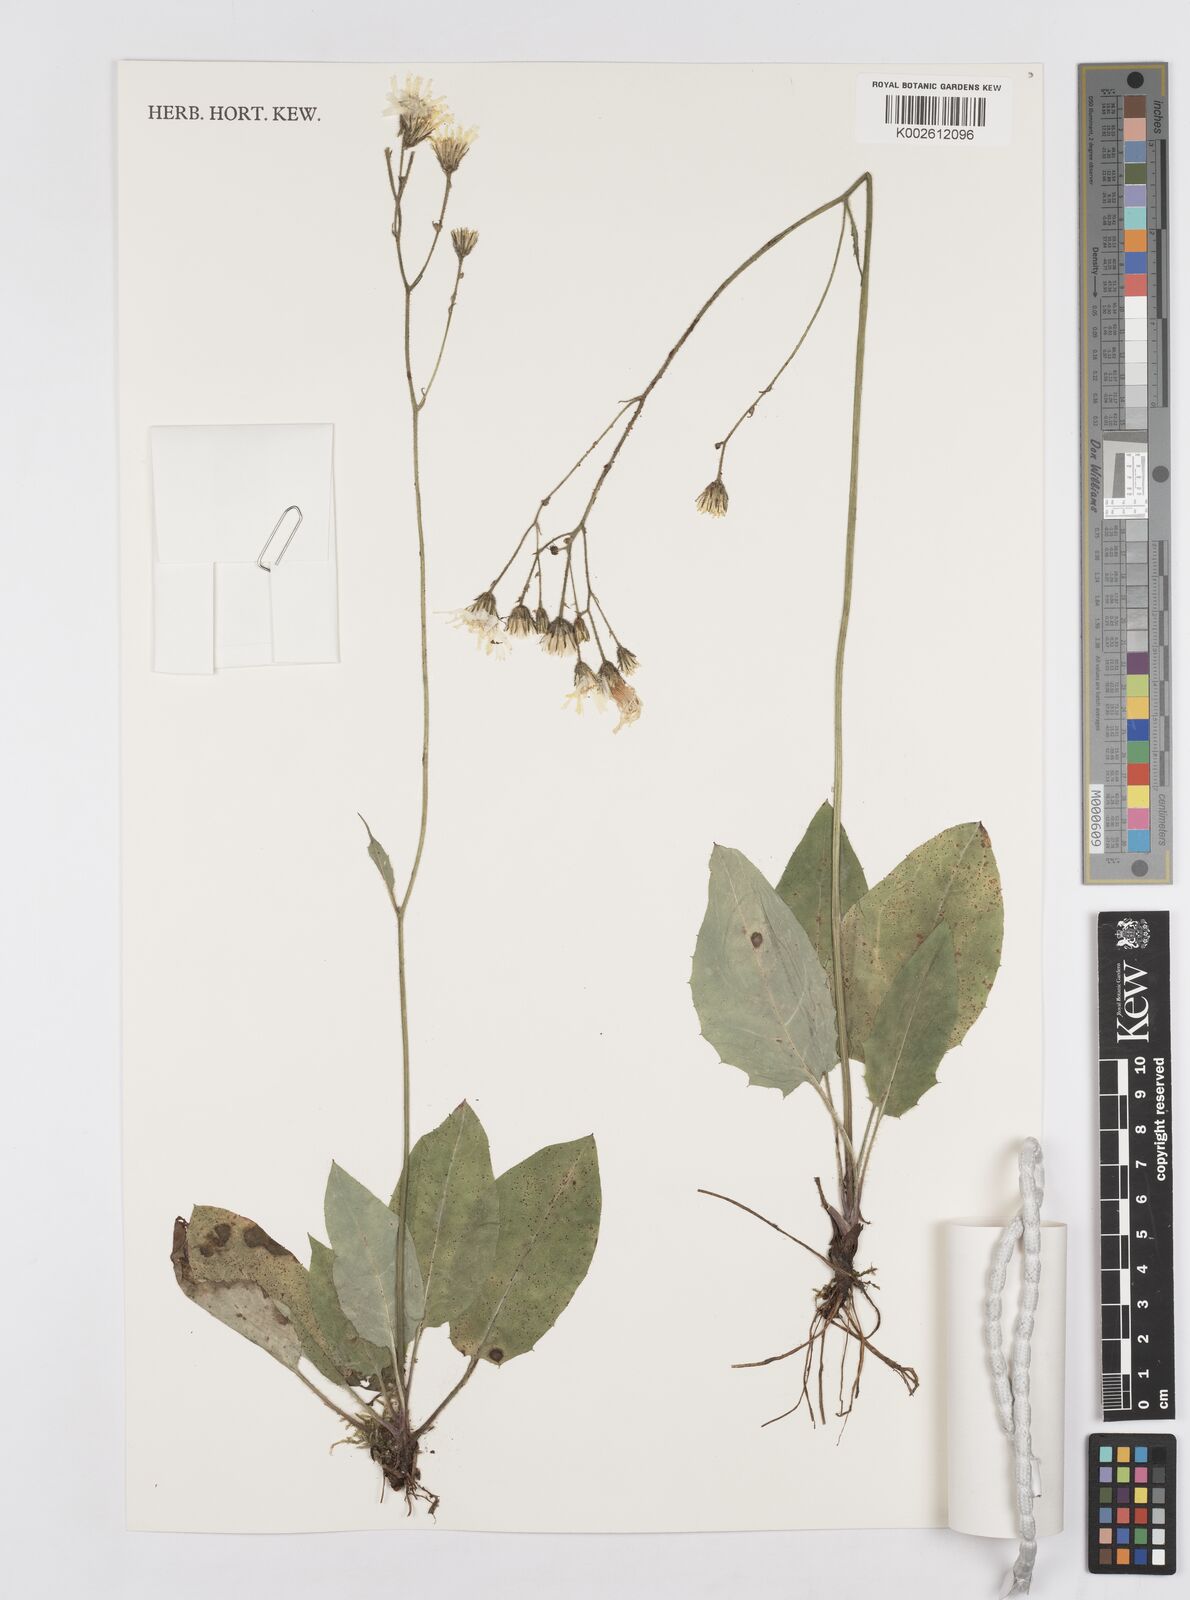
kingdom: Plantae
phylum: Tracheophyta
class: Magnoliopsida
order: Asterales
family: Asteraceae
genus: Hieracium
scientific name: Hieracium
